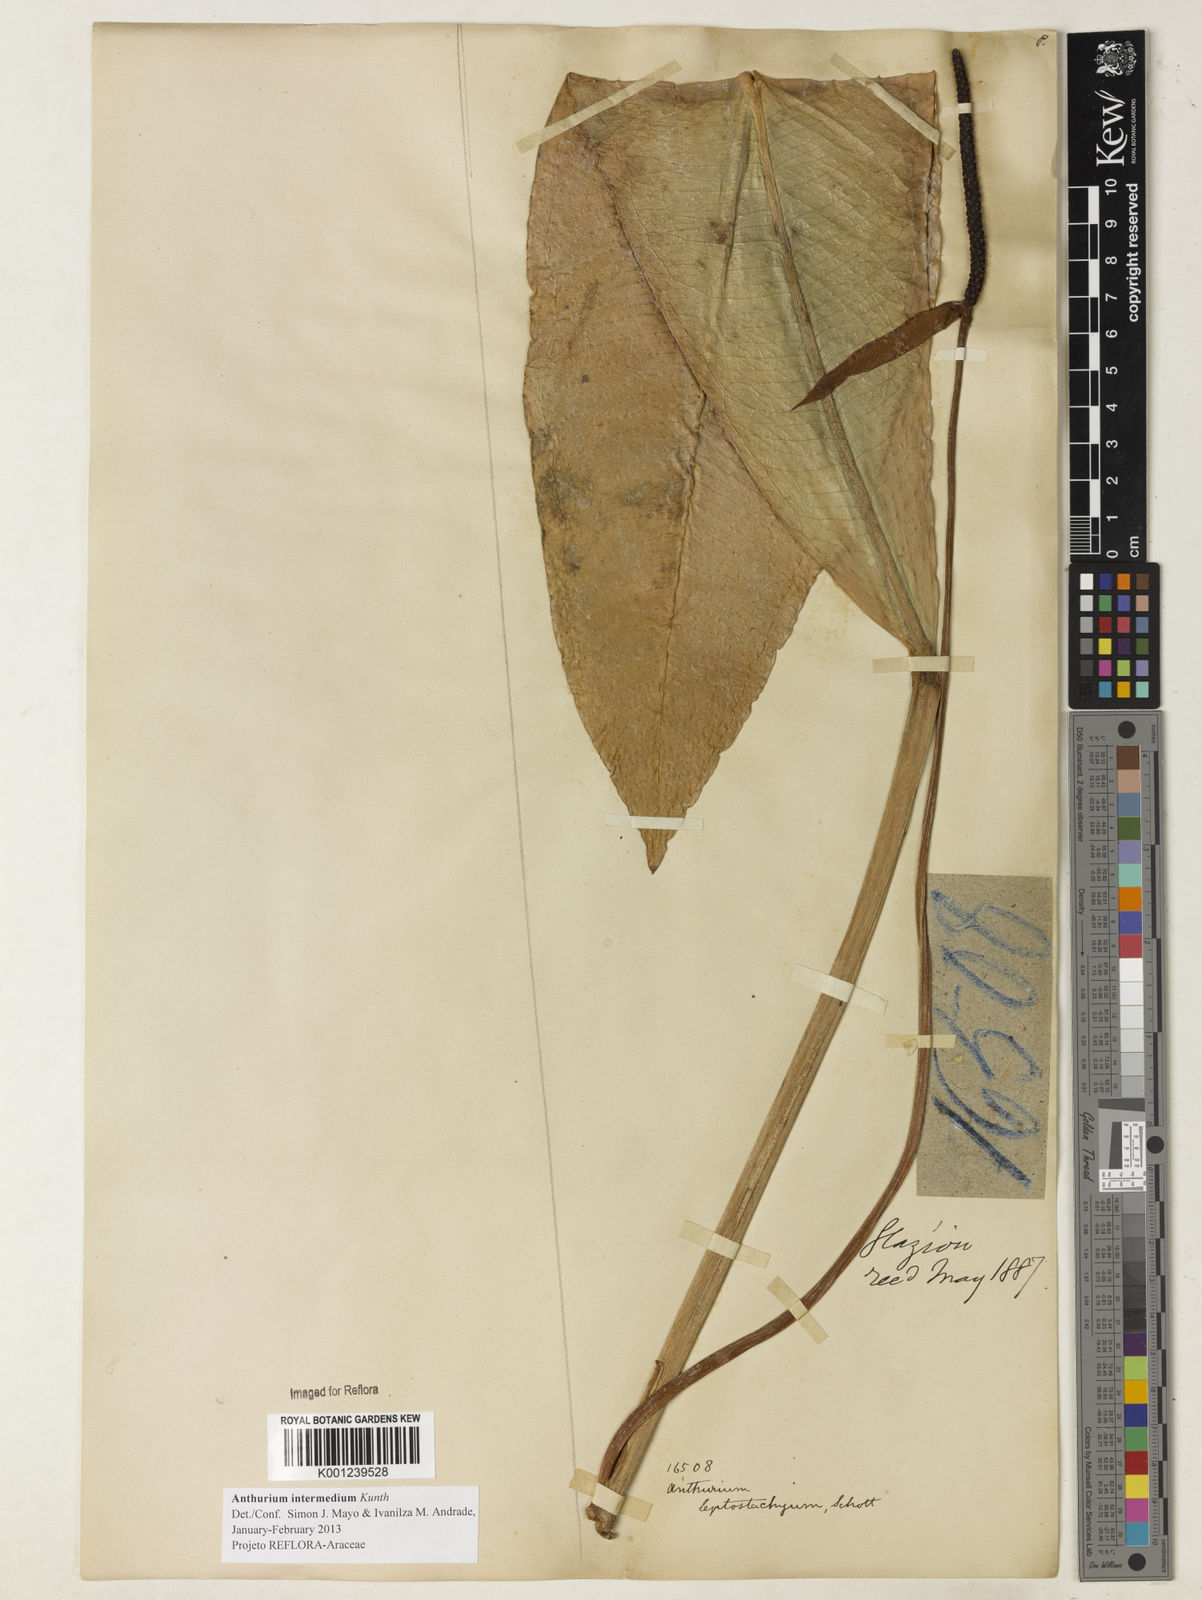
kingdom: Plantae
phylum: Tracheophyta
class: Liliopsida
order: Alismatales
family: Araceae
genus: Anthurium
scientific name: Anthurium intermedium
